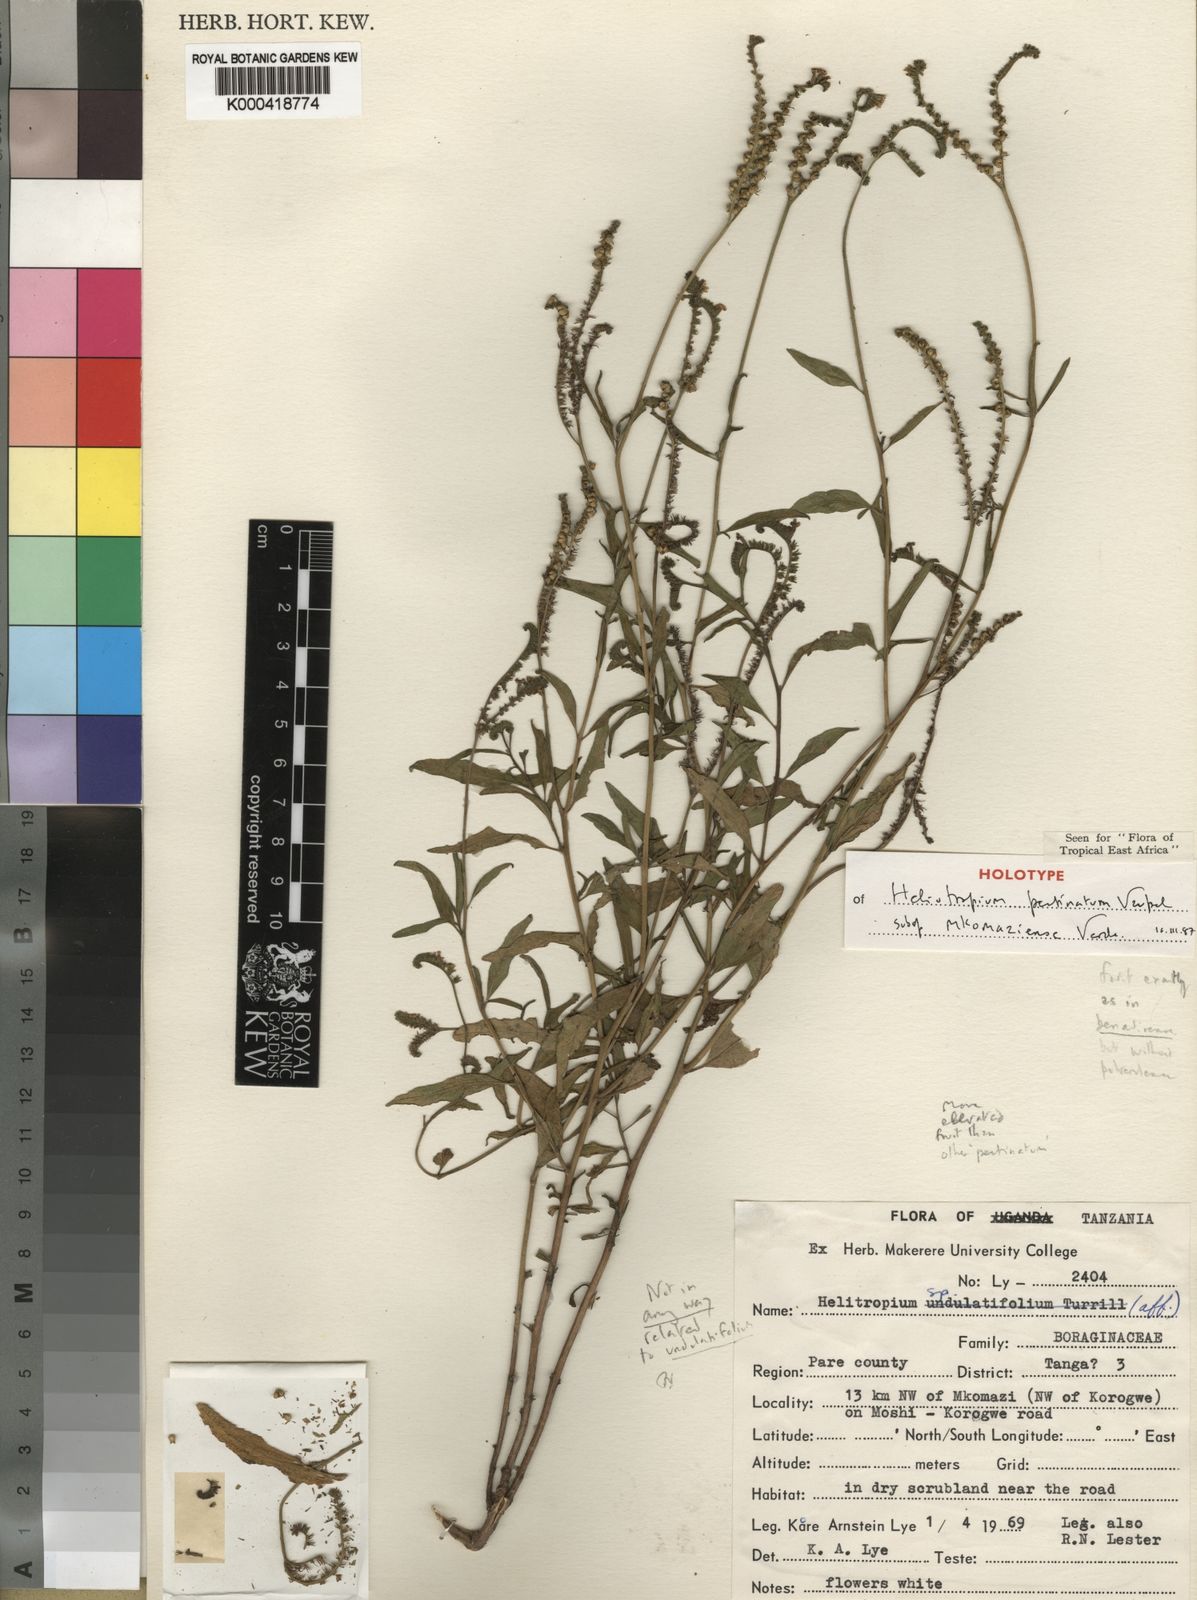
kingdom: Plantae
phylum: Tracheophyta
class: Magnoliopsida
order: Boraginales
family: Heliotropiaceae
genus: Heliotropium
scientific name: Heliotropium pectinatum
